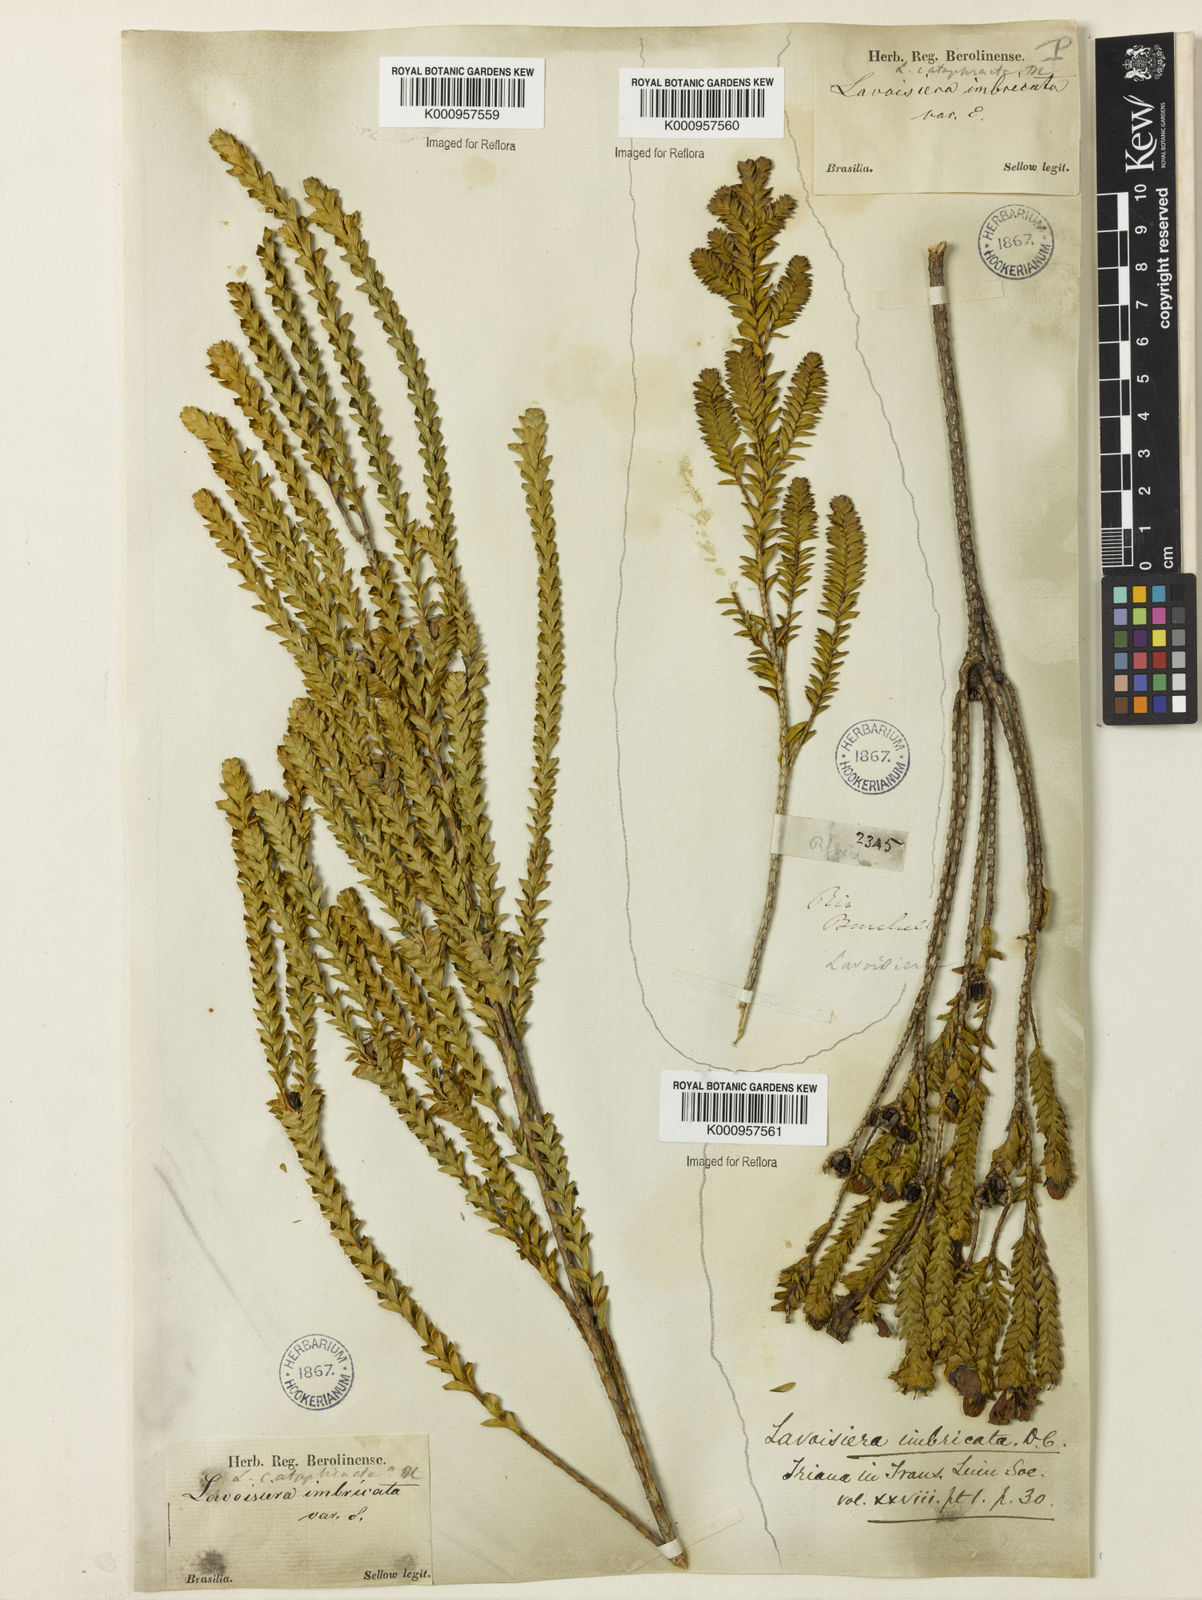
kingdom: Plantae
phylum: Tracheophyta
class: Magnoliopsida
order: Myrtales
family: Melastomataceae
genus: Microlicia
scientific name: Microlicia cataphracta
